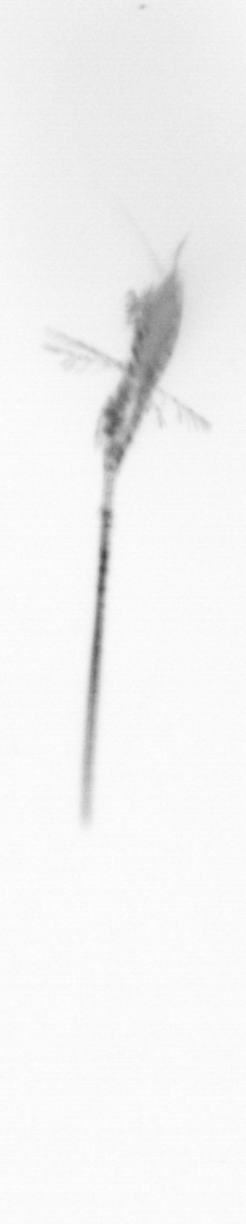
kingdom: Animalia
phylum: Arthropoda
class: Copepoda
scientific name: Copepoda
